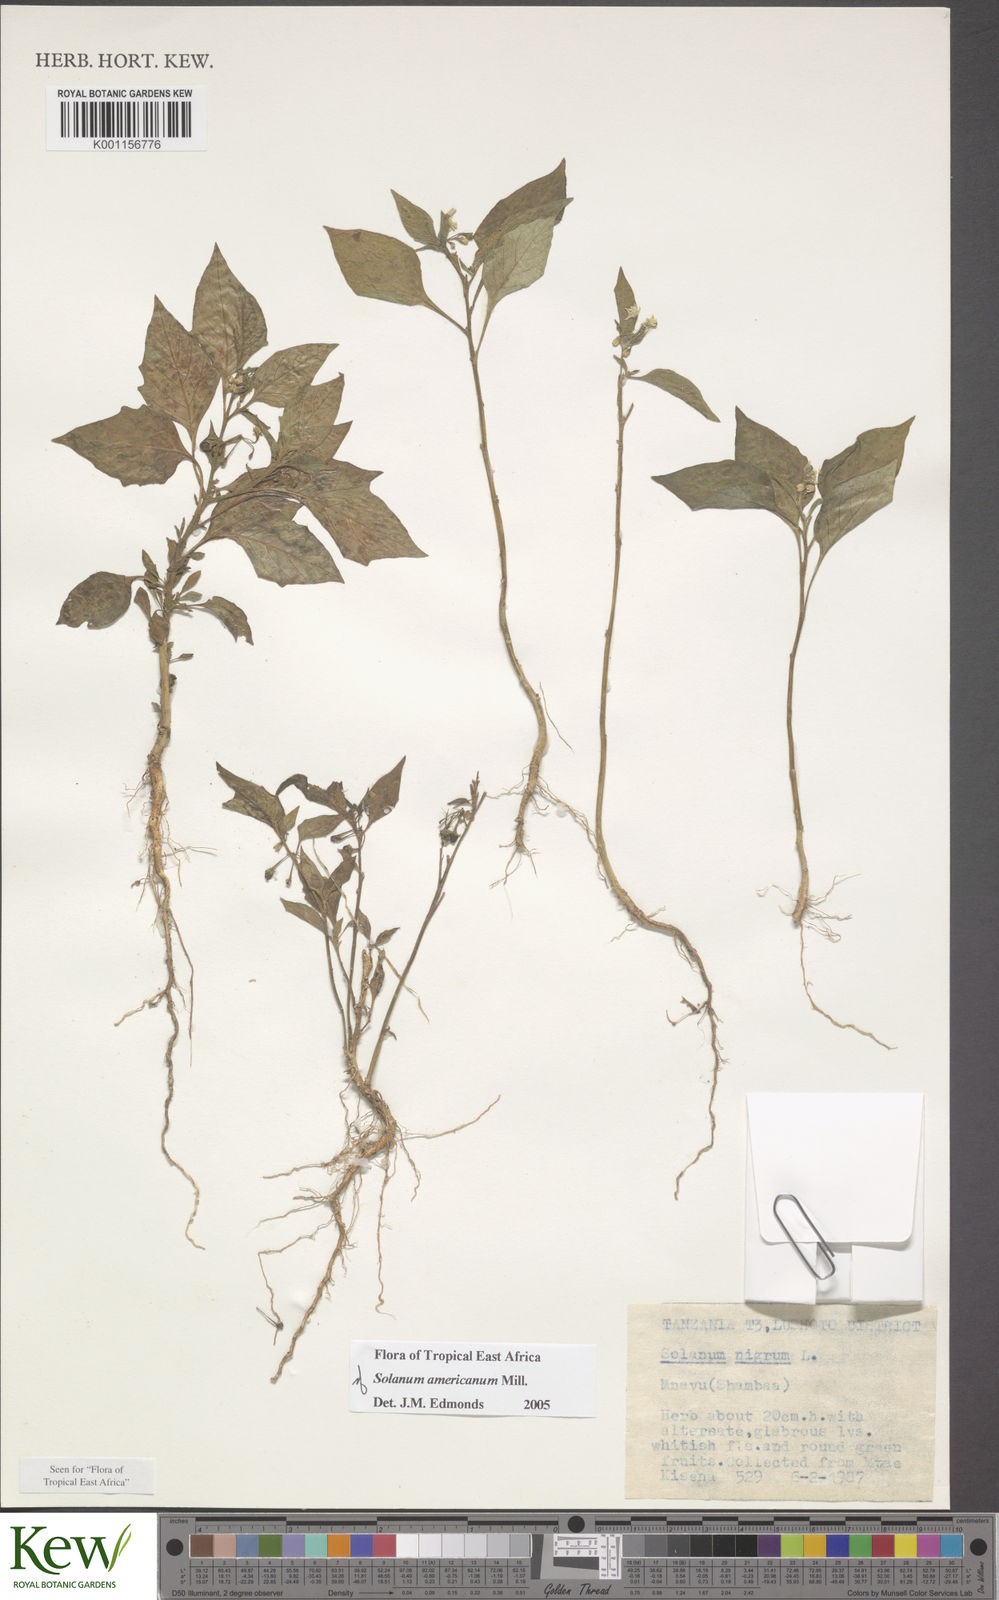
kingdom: Plantae
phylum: Tracheophyta
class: Magnoliopsida
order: Solanales
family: Solanaceae
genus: Solanum
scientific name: Solanum americanum
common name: American black nightshade
